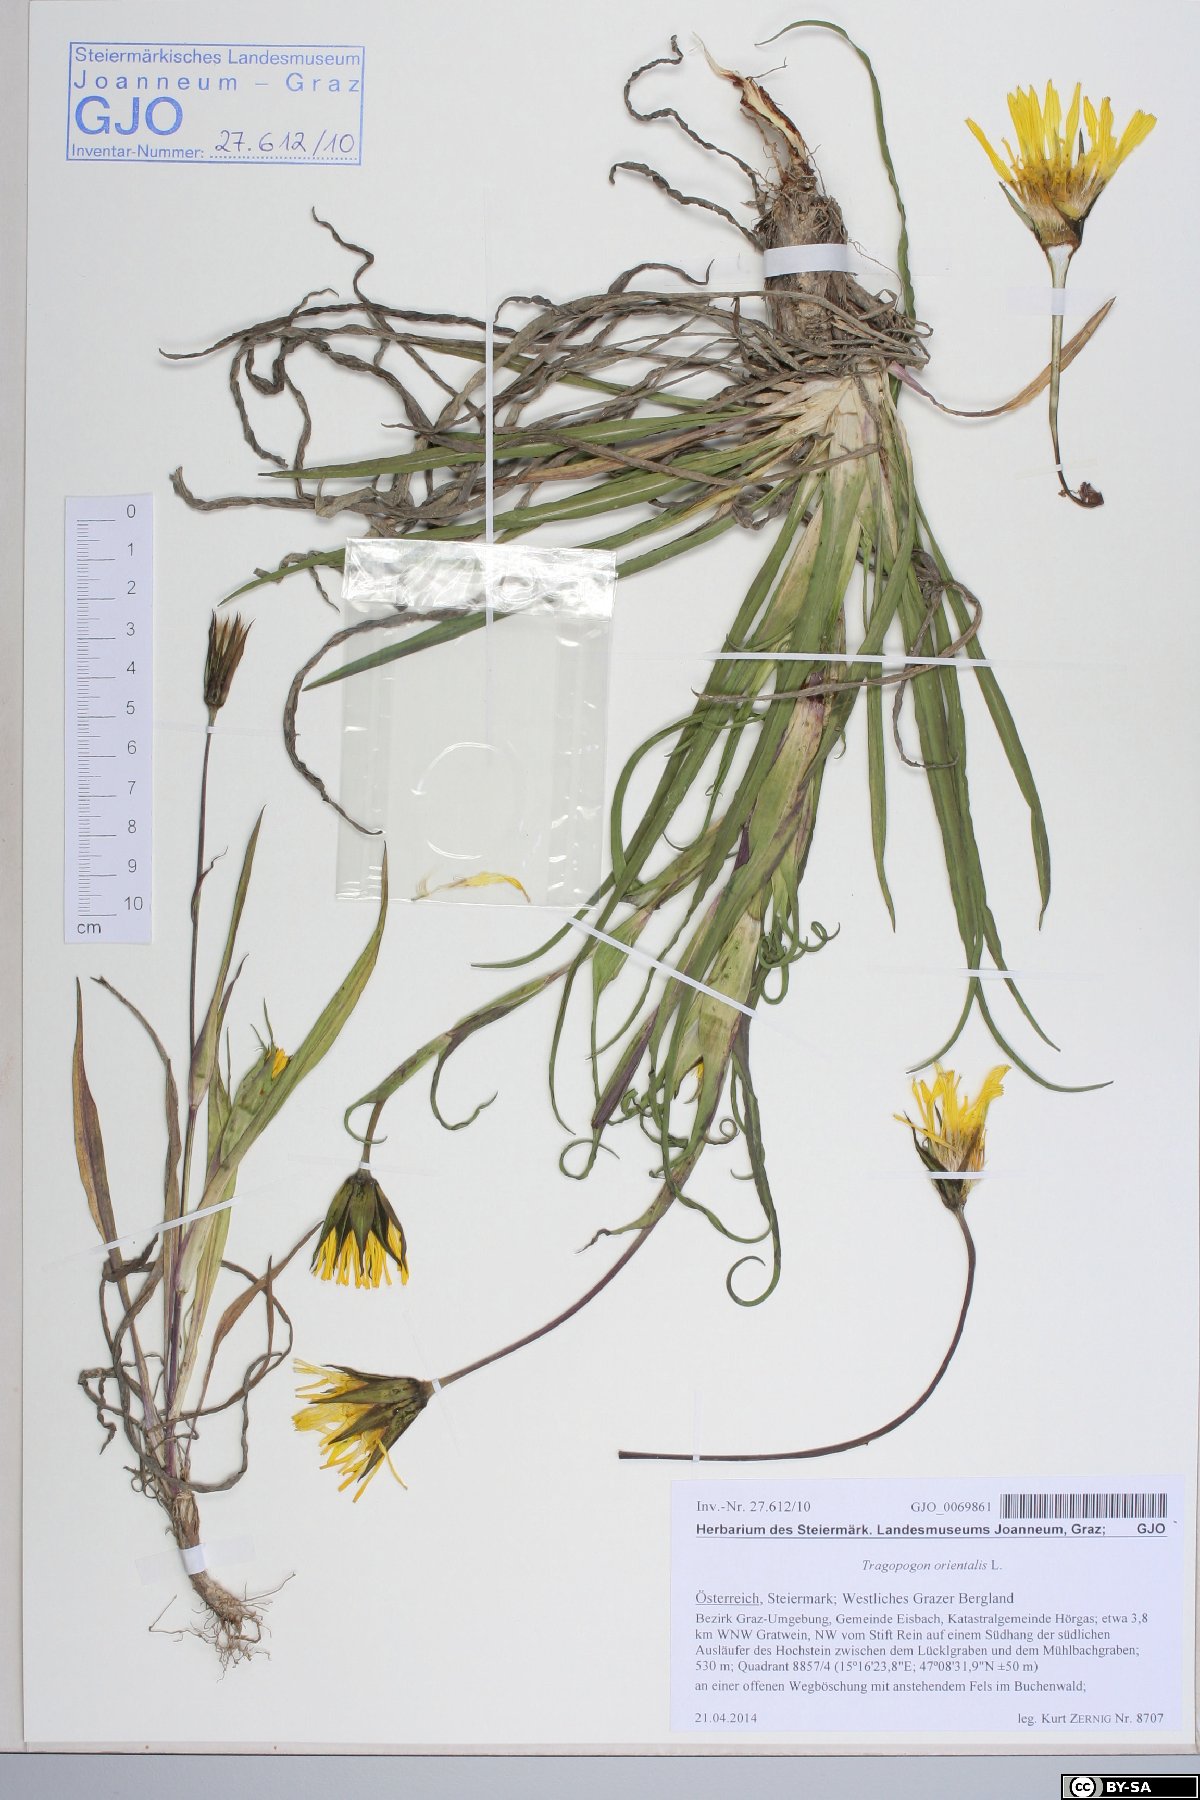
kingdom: Plantae
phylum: Tracheophyta
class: Magnoliopsida
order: Asterales
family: Asteraceae
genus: Tragopogon
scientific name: Tragopogon orientalis
